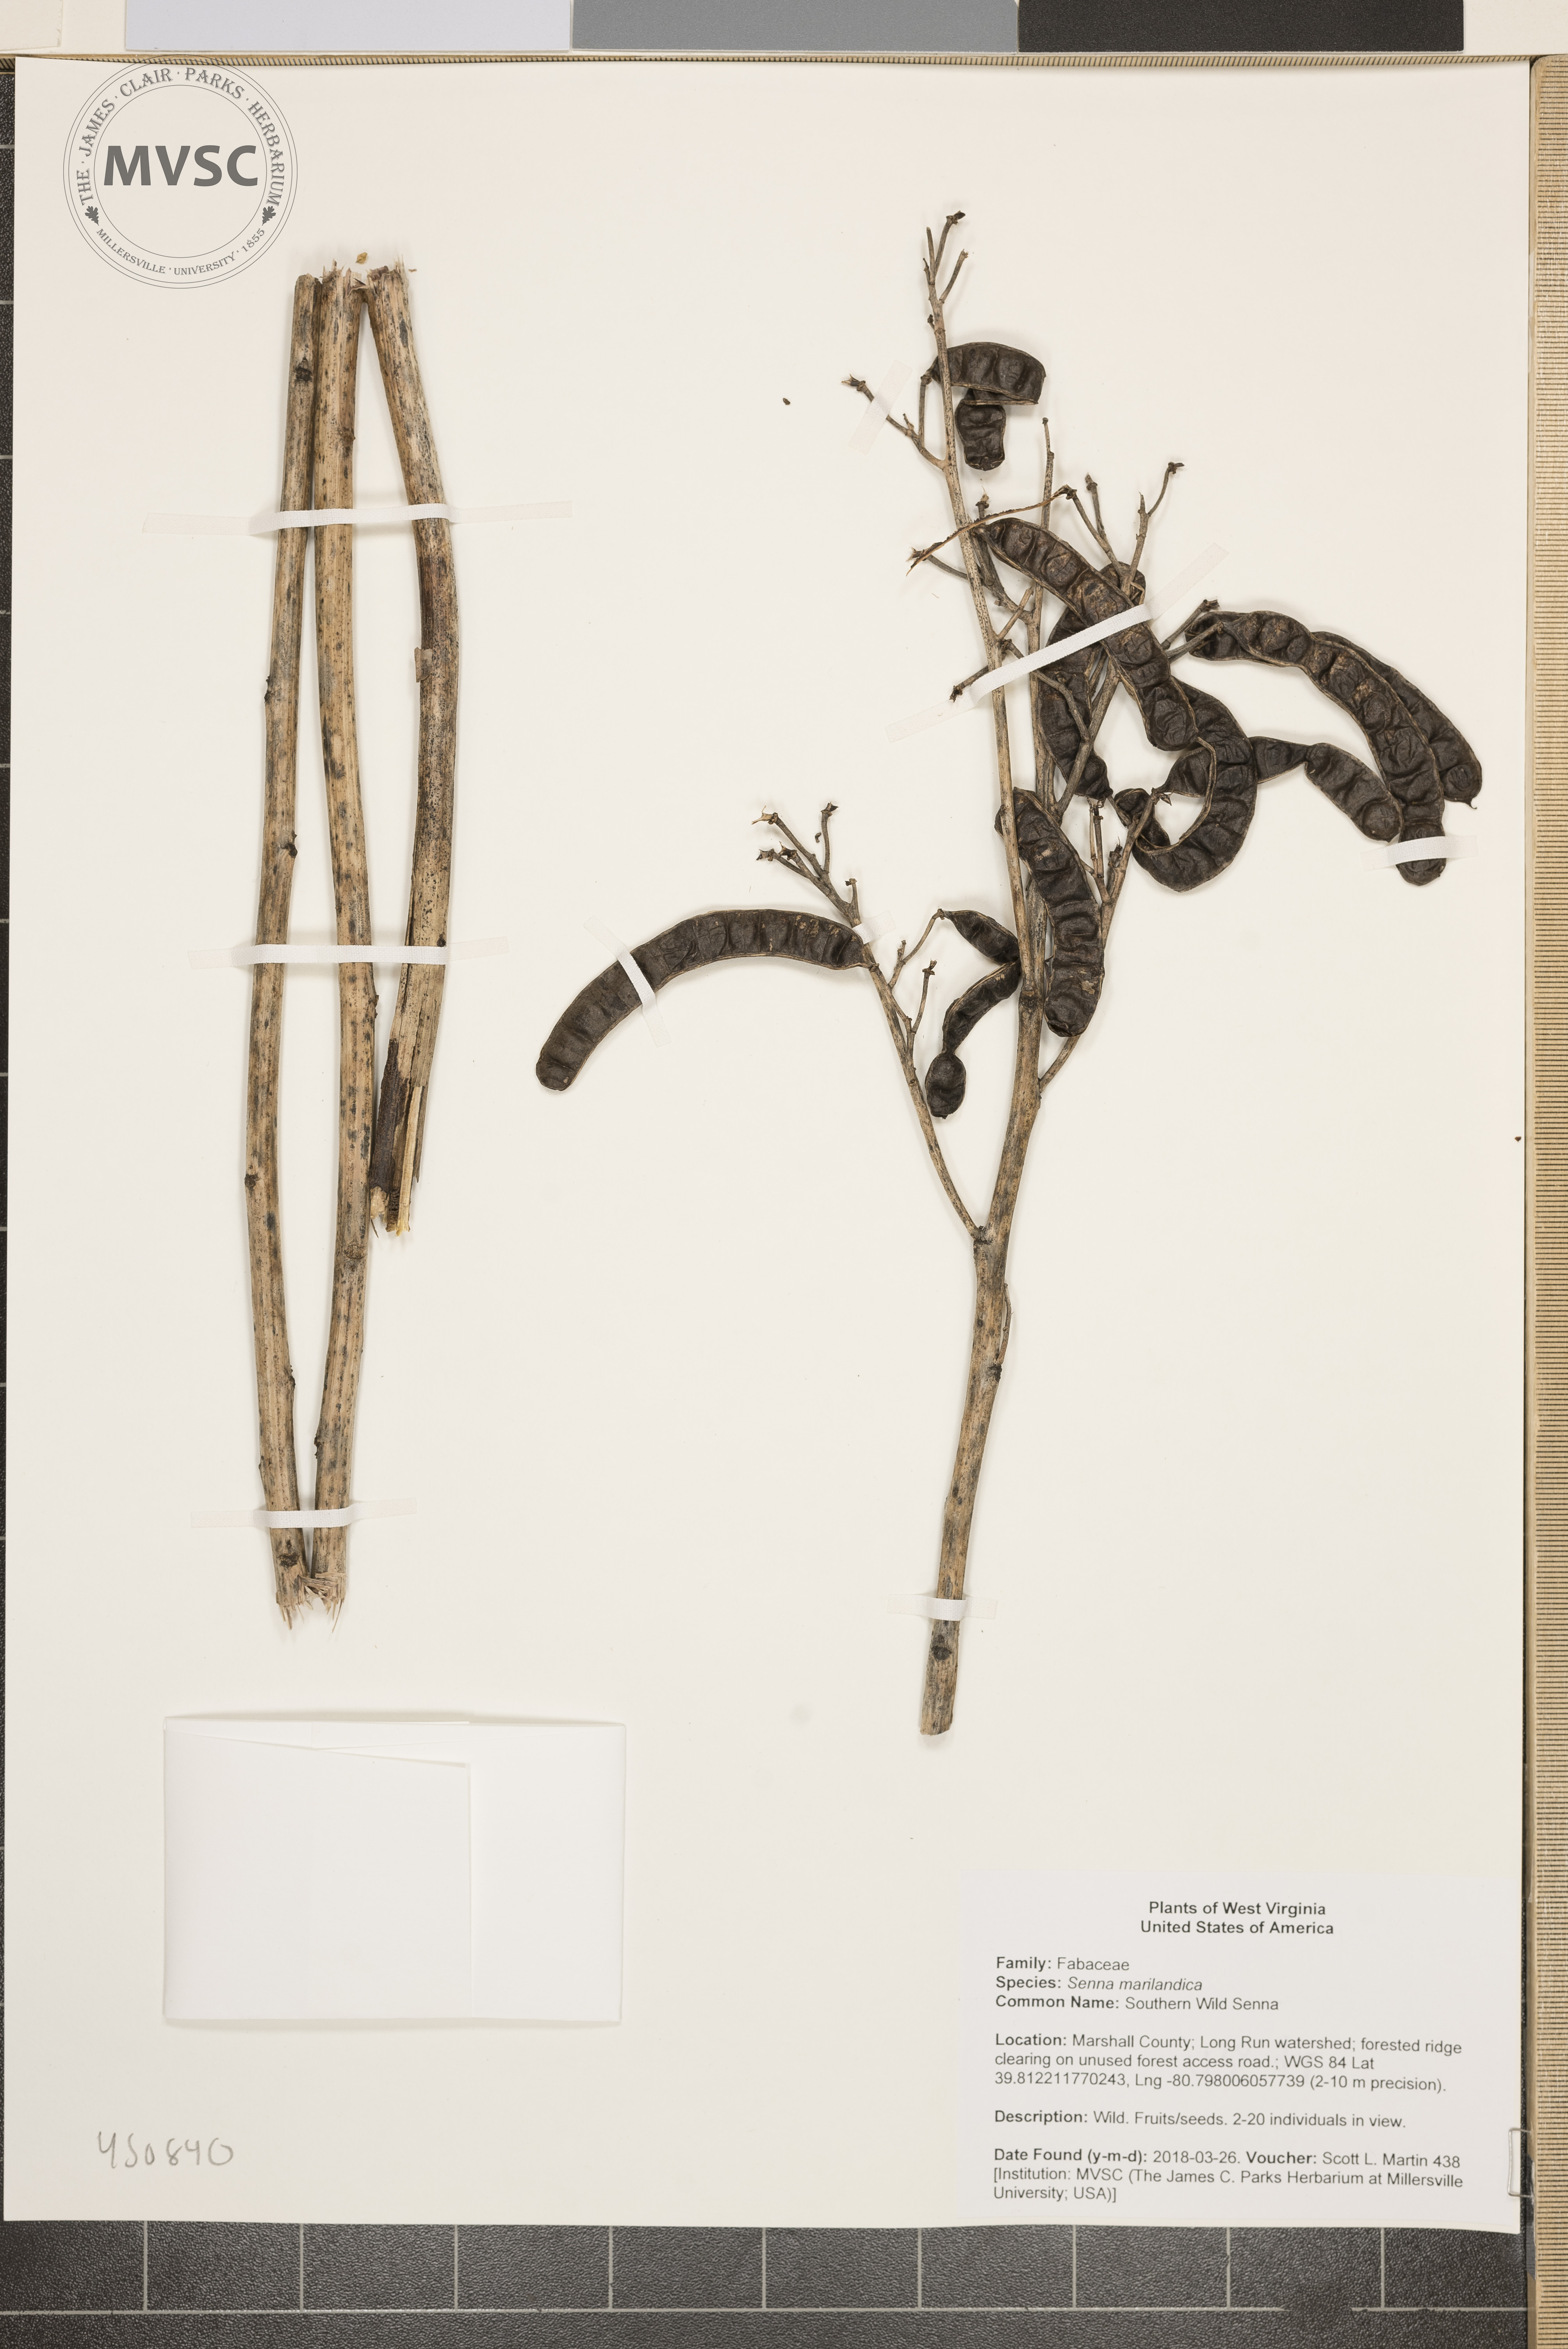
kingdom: Plantae
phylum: Tracheophyta
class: Magnoliopsida
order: Fabales
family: Fabaceae
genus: Senna
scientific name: Senna marilandica
